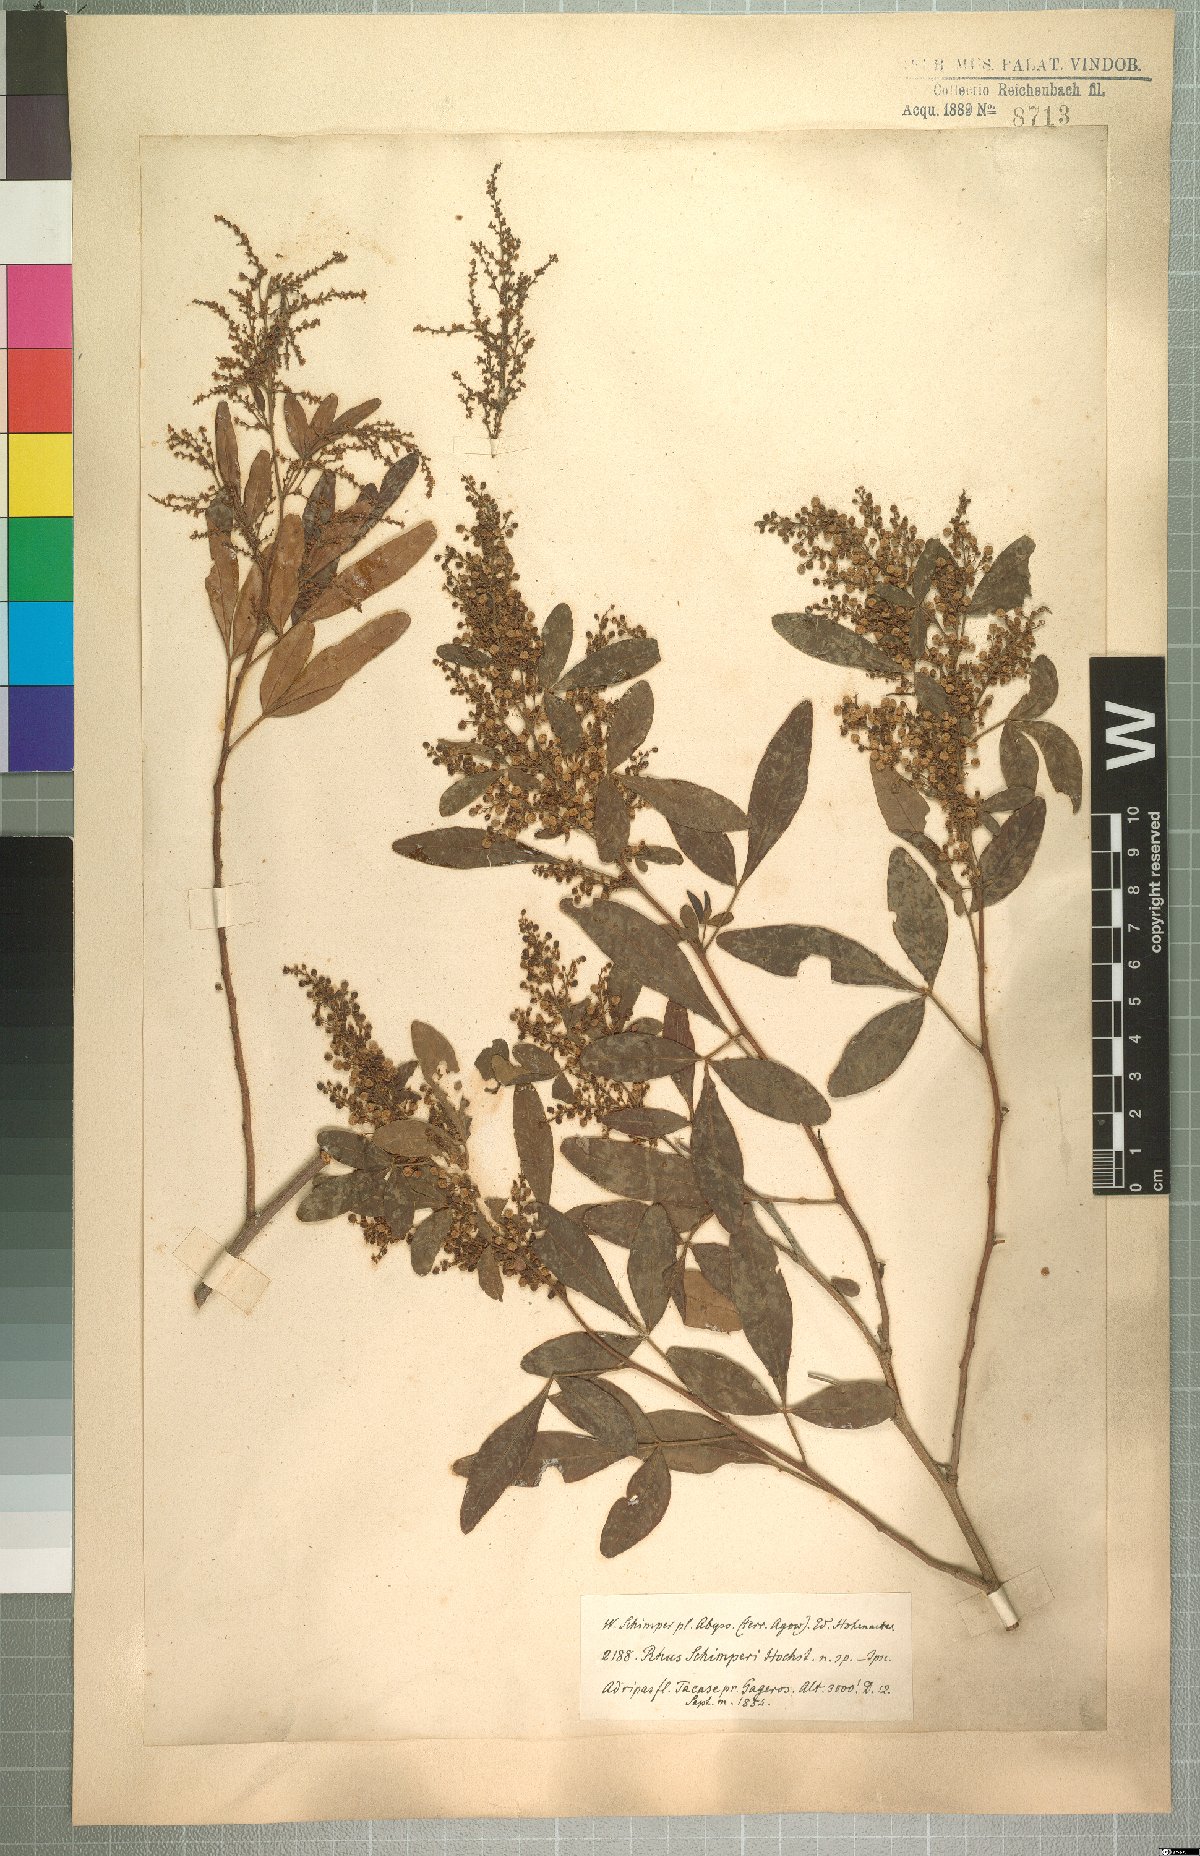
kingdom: Plantae
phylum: Tracheophyta
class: Magnoliopsida
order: Sapindales
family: Anacardiaceae
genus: Searsia
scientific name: Searsia quartiniana
